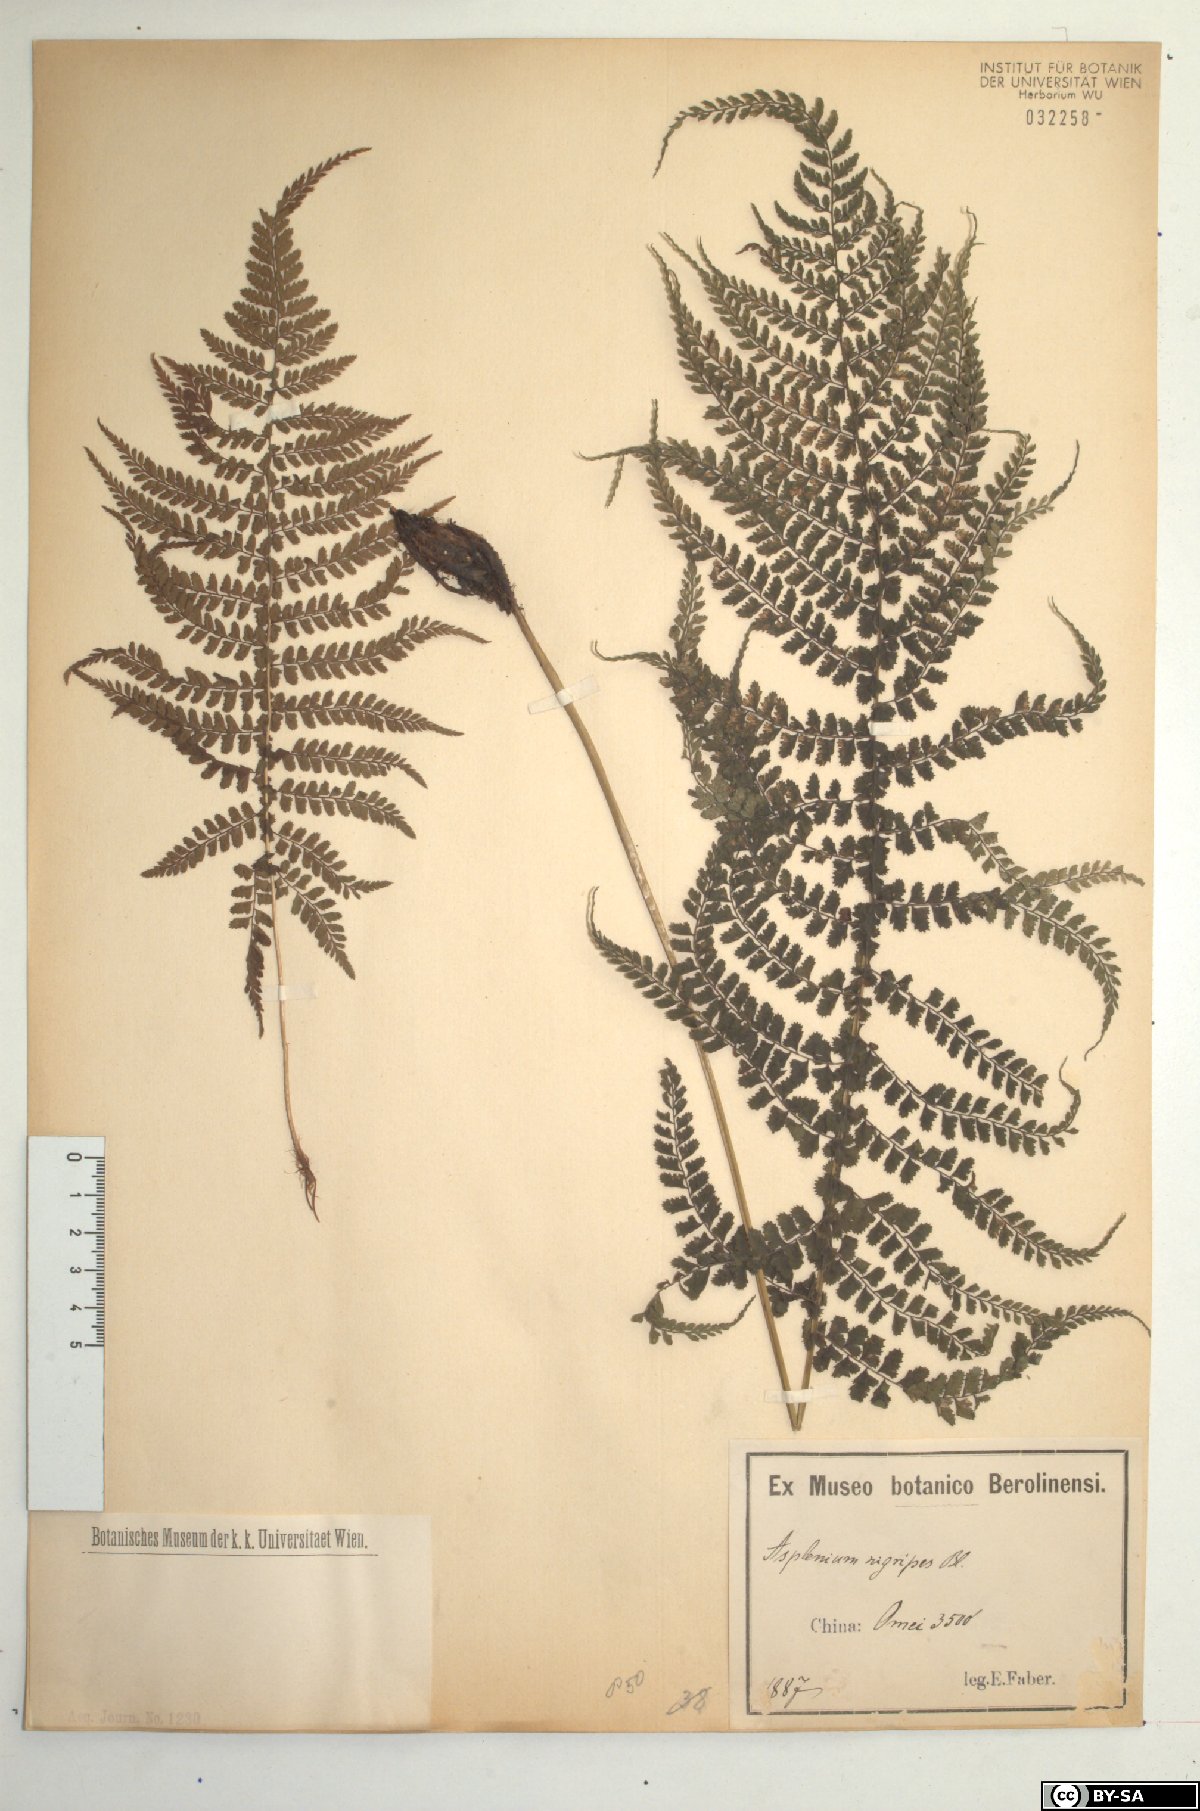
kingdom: Plantae
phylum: Tracheophyta
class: Polypodiopsida
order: Polypodiales
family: Athyriaceae
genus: Athyrium
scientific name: Athyrium delavayi
